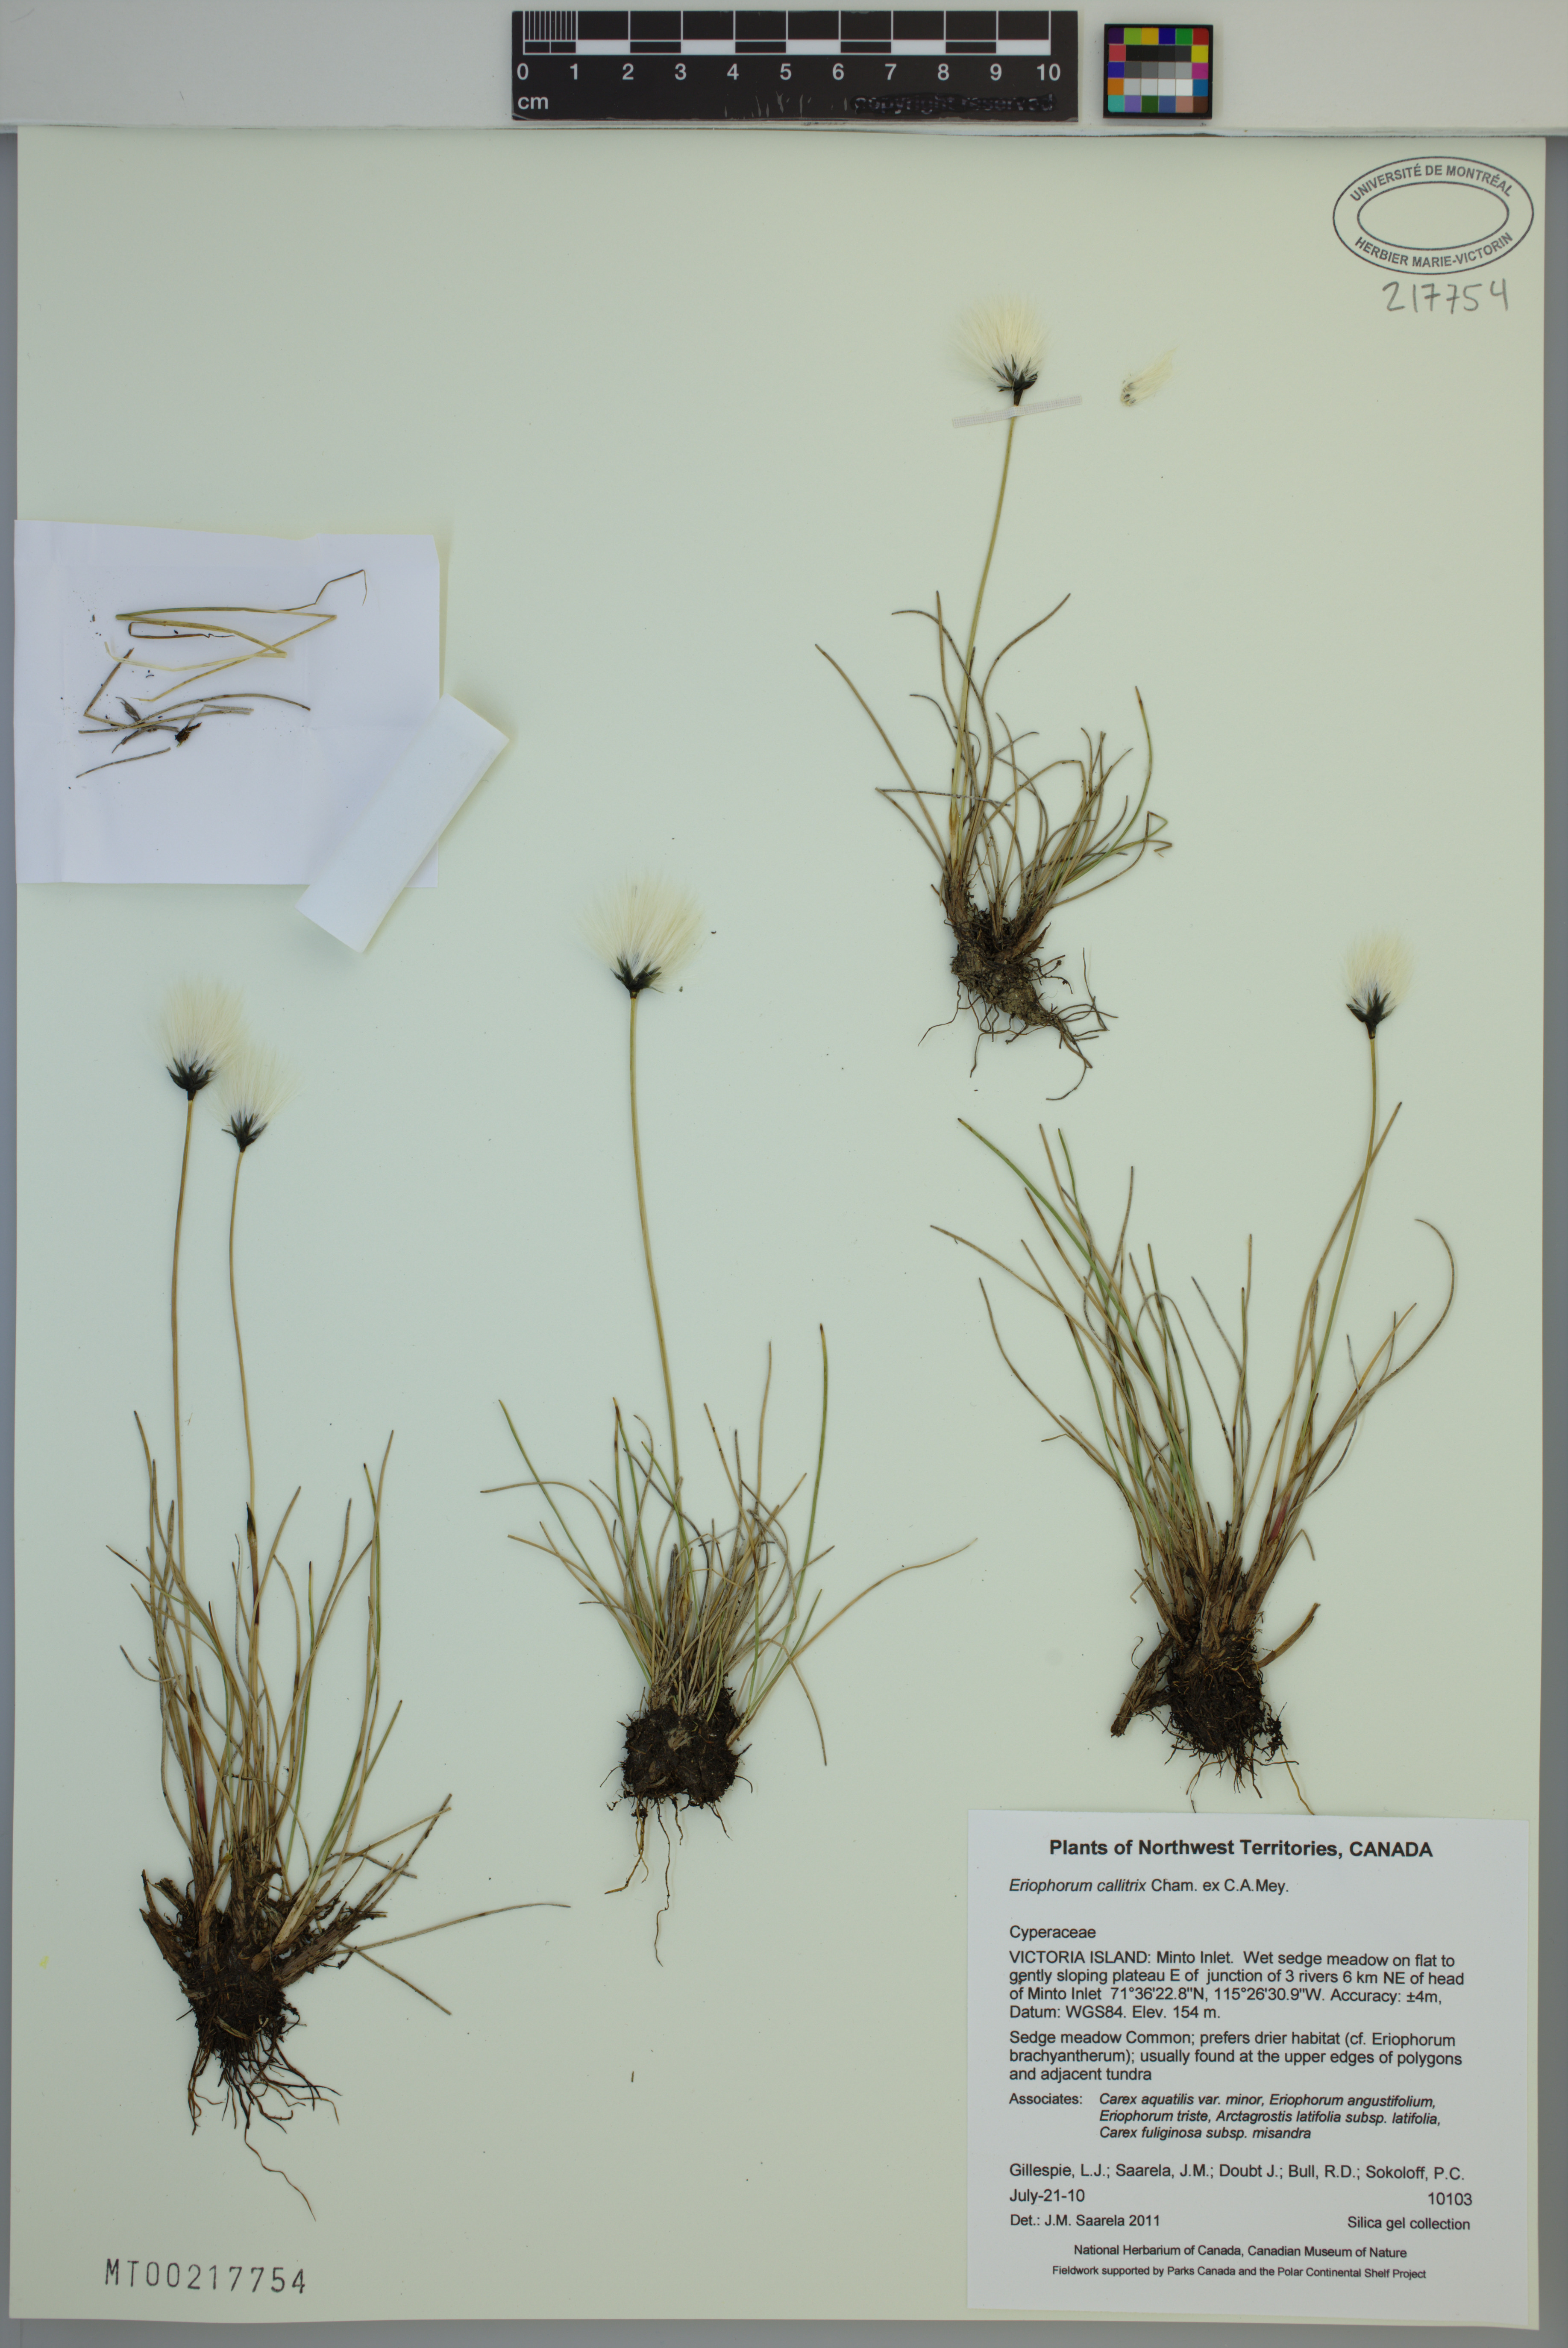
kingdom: Plantae
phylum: Tracheophyta
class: Liliopsida
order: Poales
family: Cyperaceae
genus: Eriophorum
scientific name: Eriophorum callitrix
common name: Arctic cottongrass
